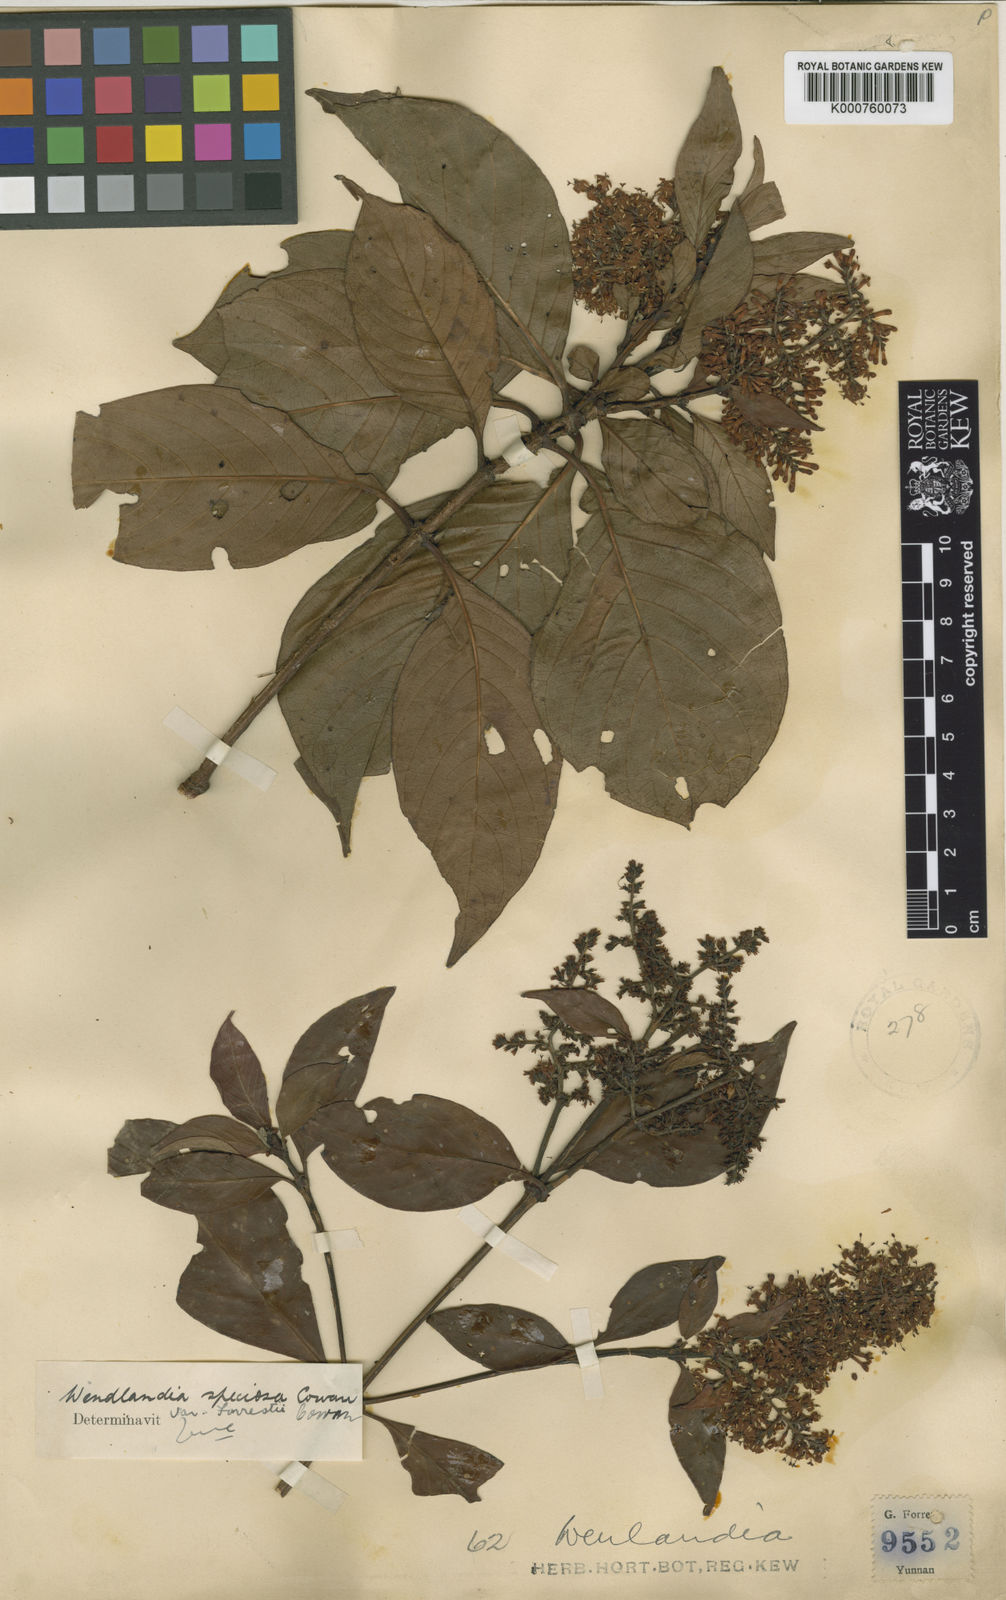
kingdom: Plantae
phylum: Tracheophyta
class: Magnoliopsida
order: Gentianales
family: Rubiaceae
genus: Wendlandia
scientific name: Wendlandia speciosa
